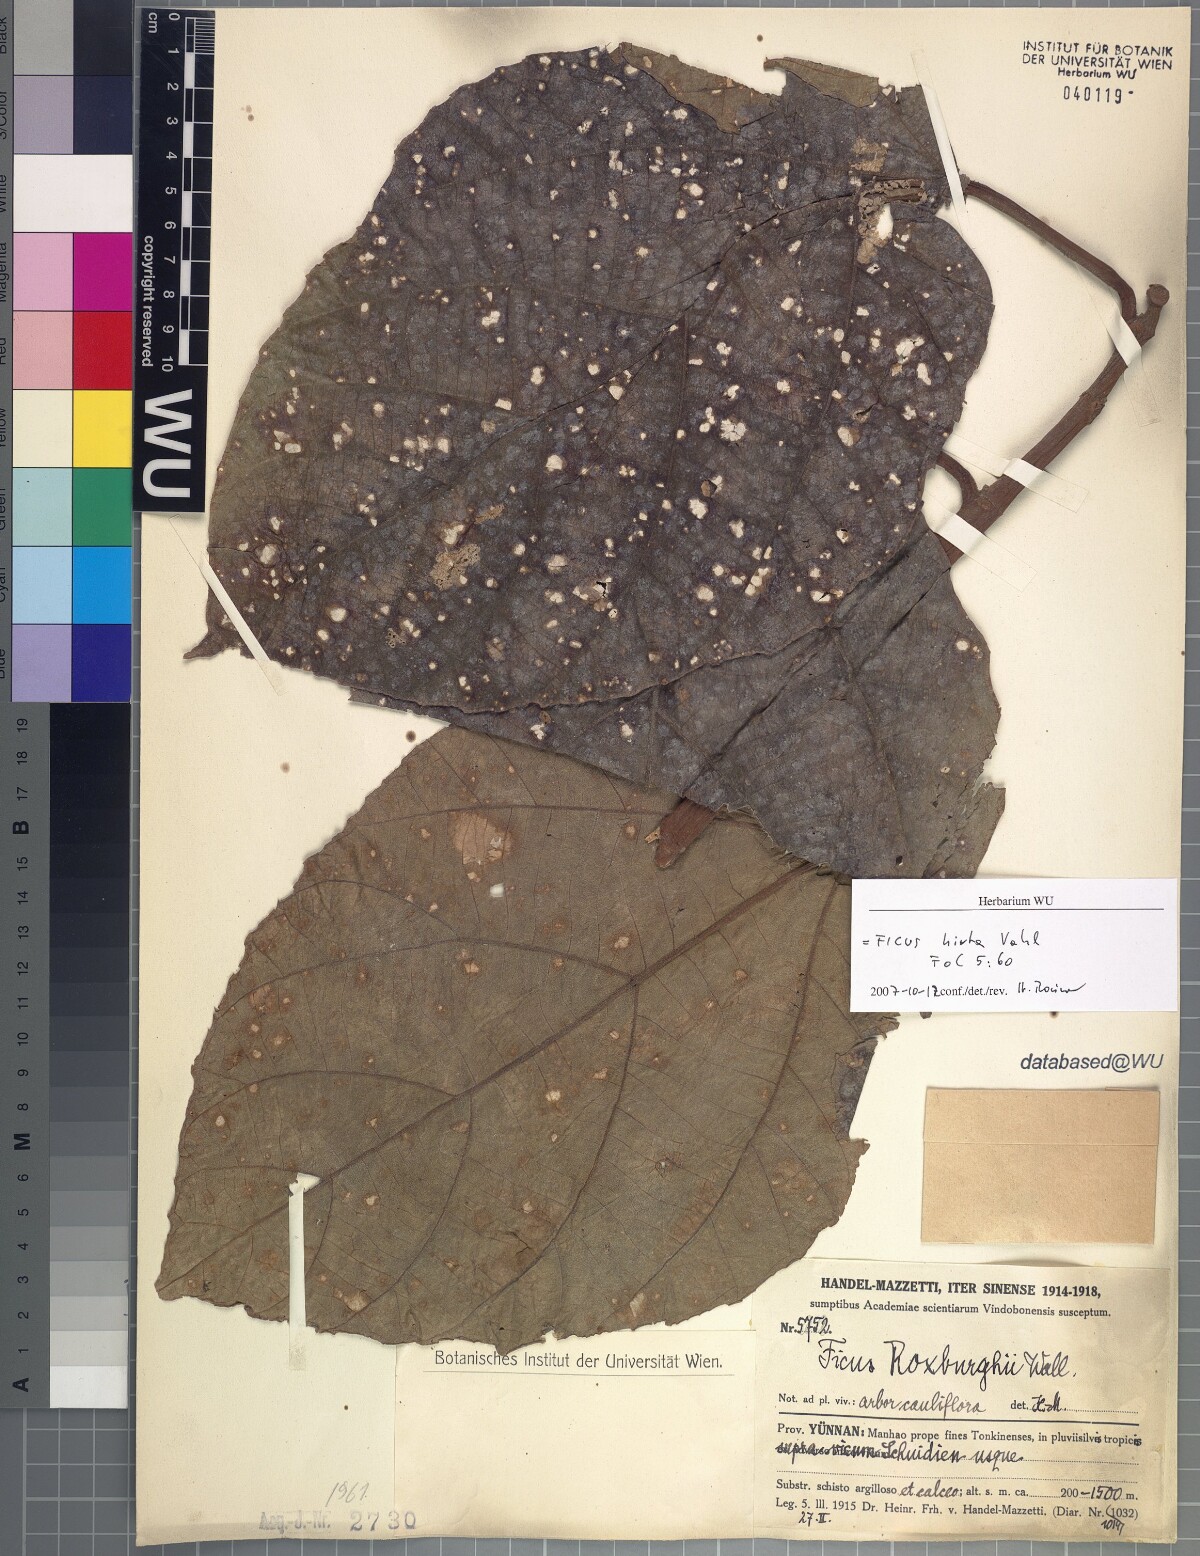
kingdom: Plantae
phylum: Tracheophyta
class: Magnoliopsida
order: Rosales
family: Moraceae
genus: Ficus
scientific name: Ficus simplicissima
